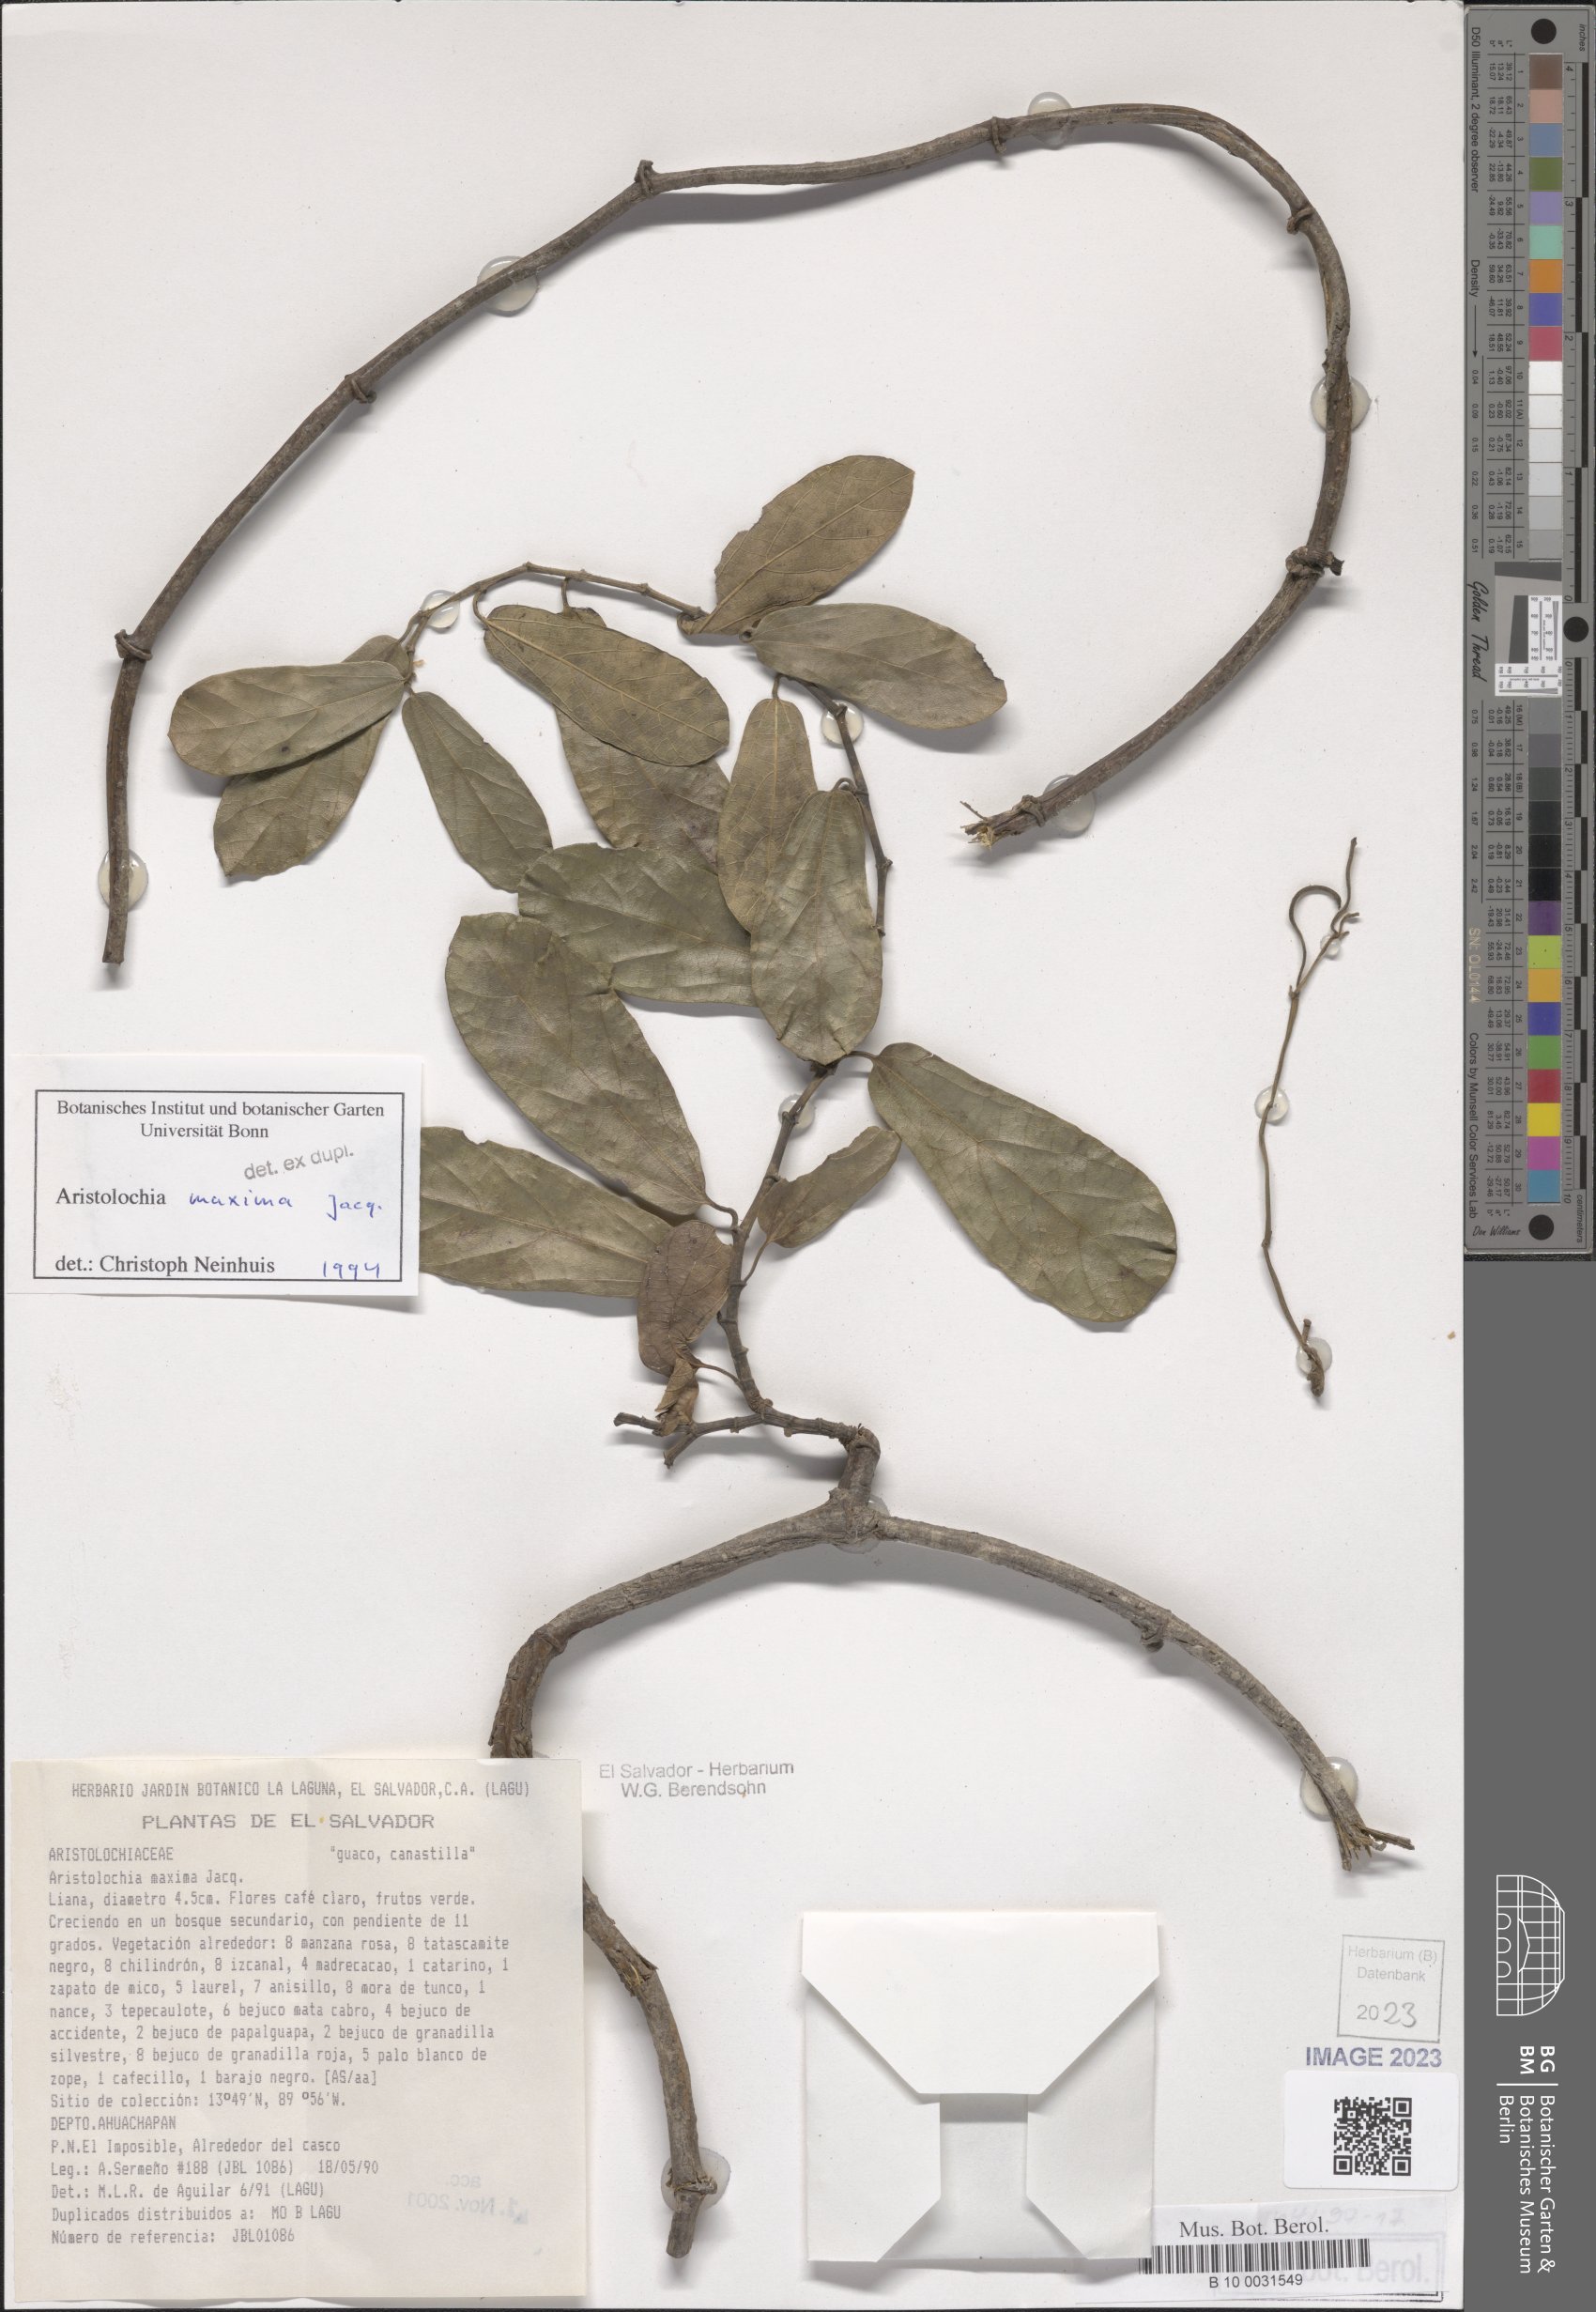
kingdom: Plantae
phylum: Tracheophyta
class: Magnoliopsida
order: Piperales
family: Aristolochiaceae
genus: Aristolochia
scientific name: Aristolochia maxima
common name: Florida dutchman's pipe
